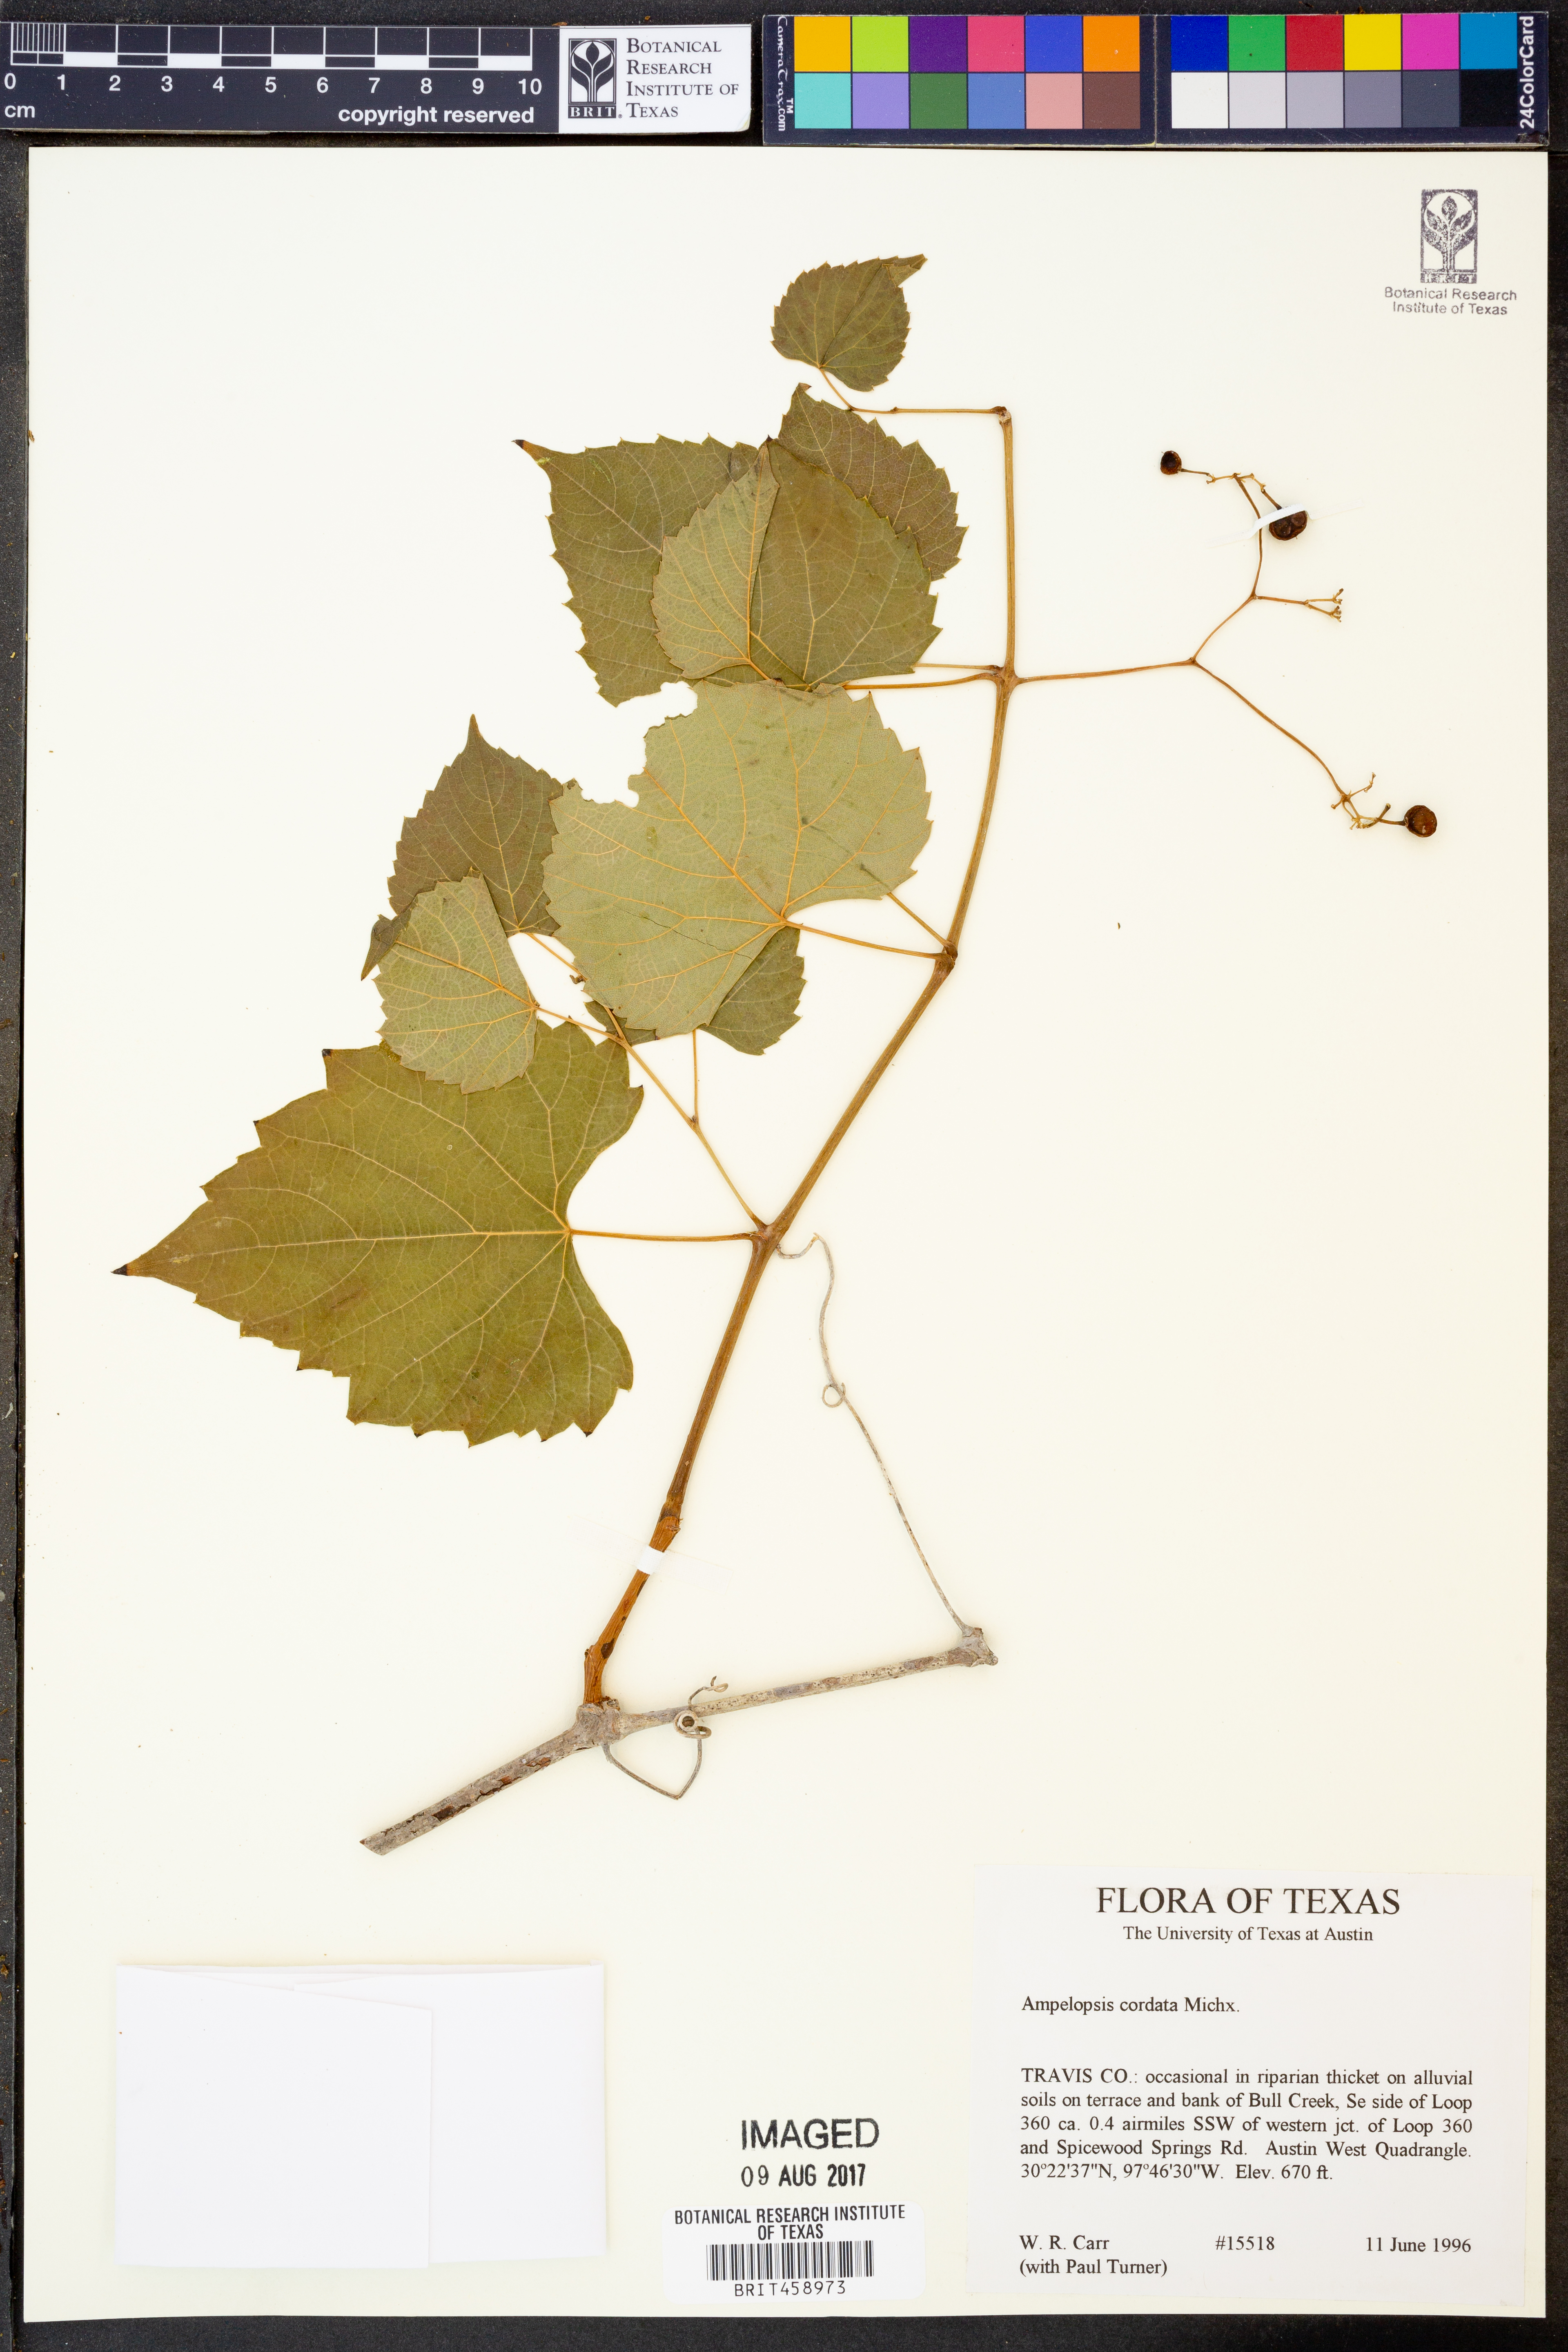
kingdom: Plantae
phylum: Tracheophyta
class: Magnoliopsida
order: Vitales
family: Vitaceae
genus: Ampelopsis
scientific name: Ampelopsis cordata
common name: Heart-leaf ampelopsis
